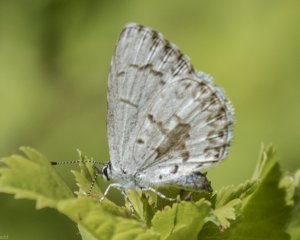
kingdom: Animalia
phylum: Arthropoda
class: Insecta
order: Lepidoptera
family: Lycaenidae
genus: Celastrina
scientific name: Celastrina lucia
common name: Northern Spring Azure
